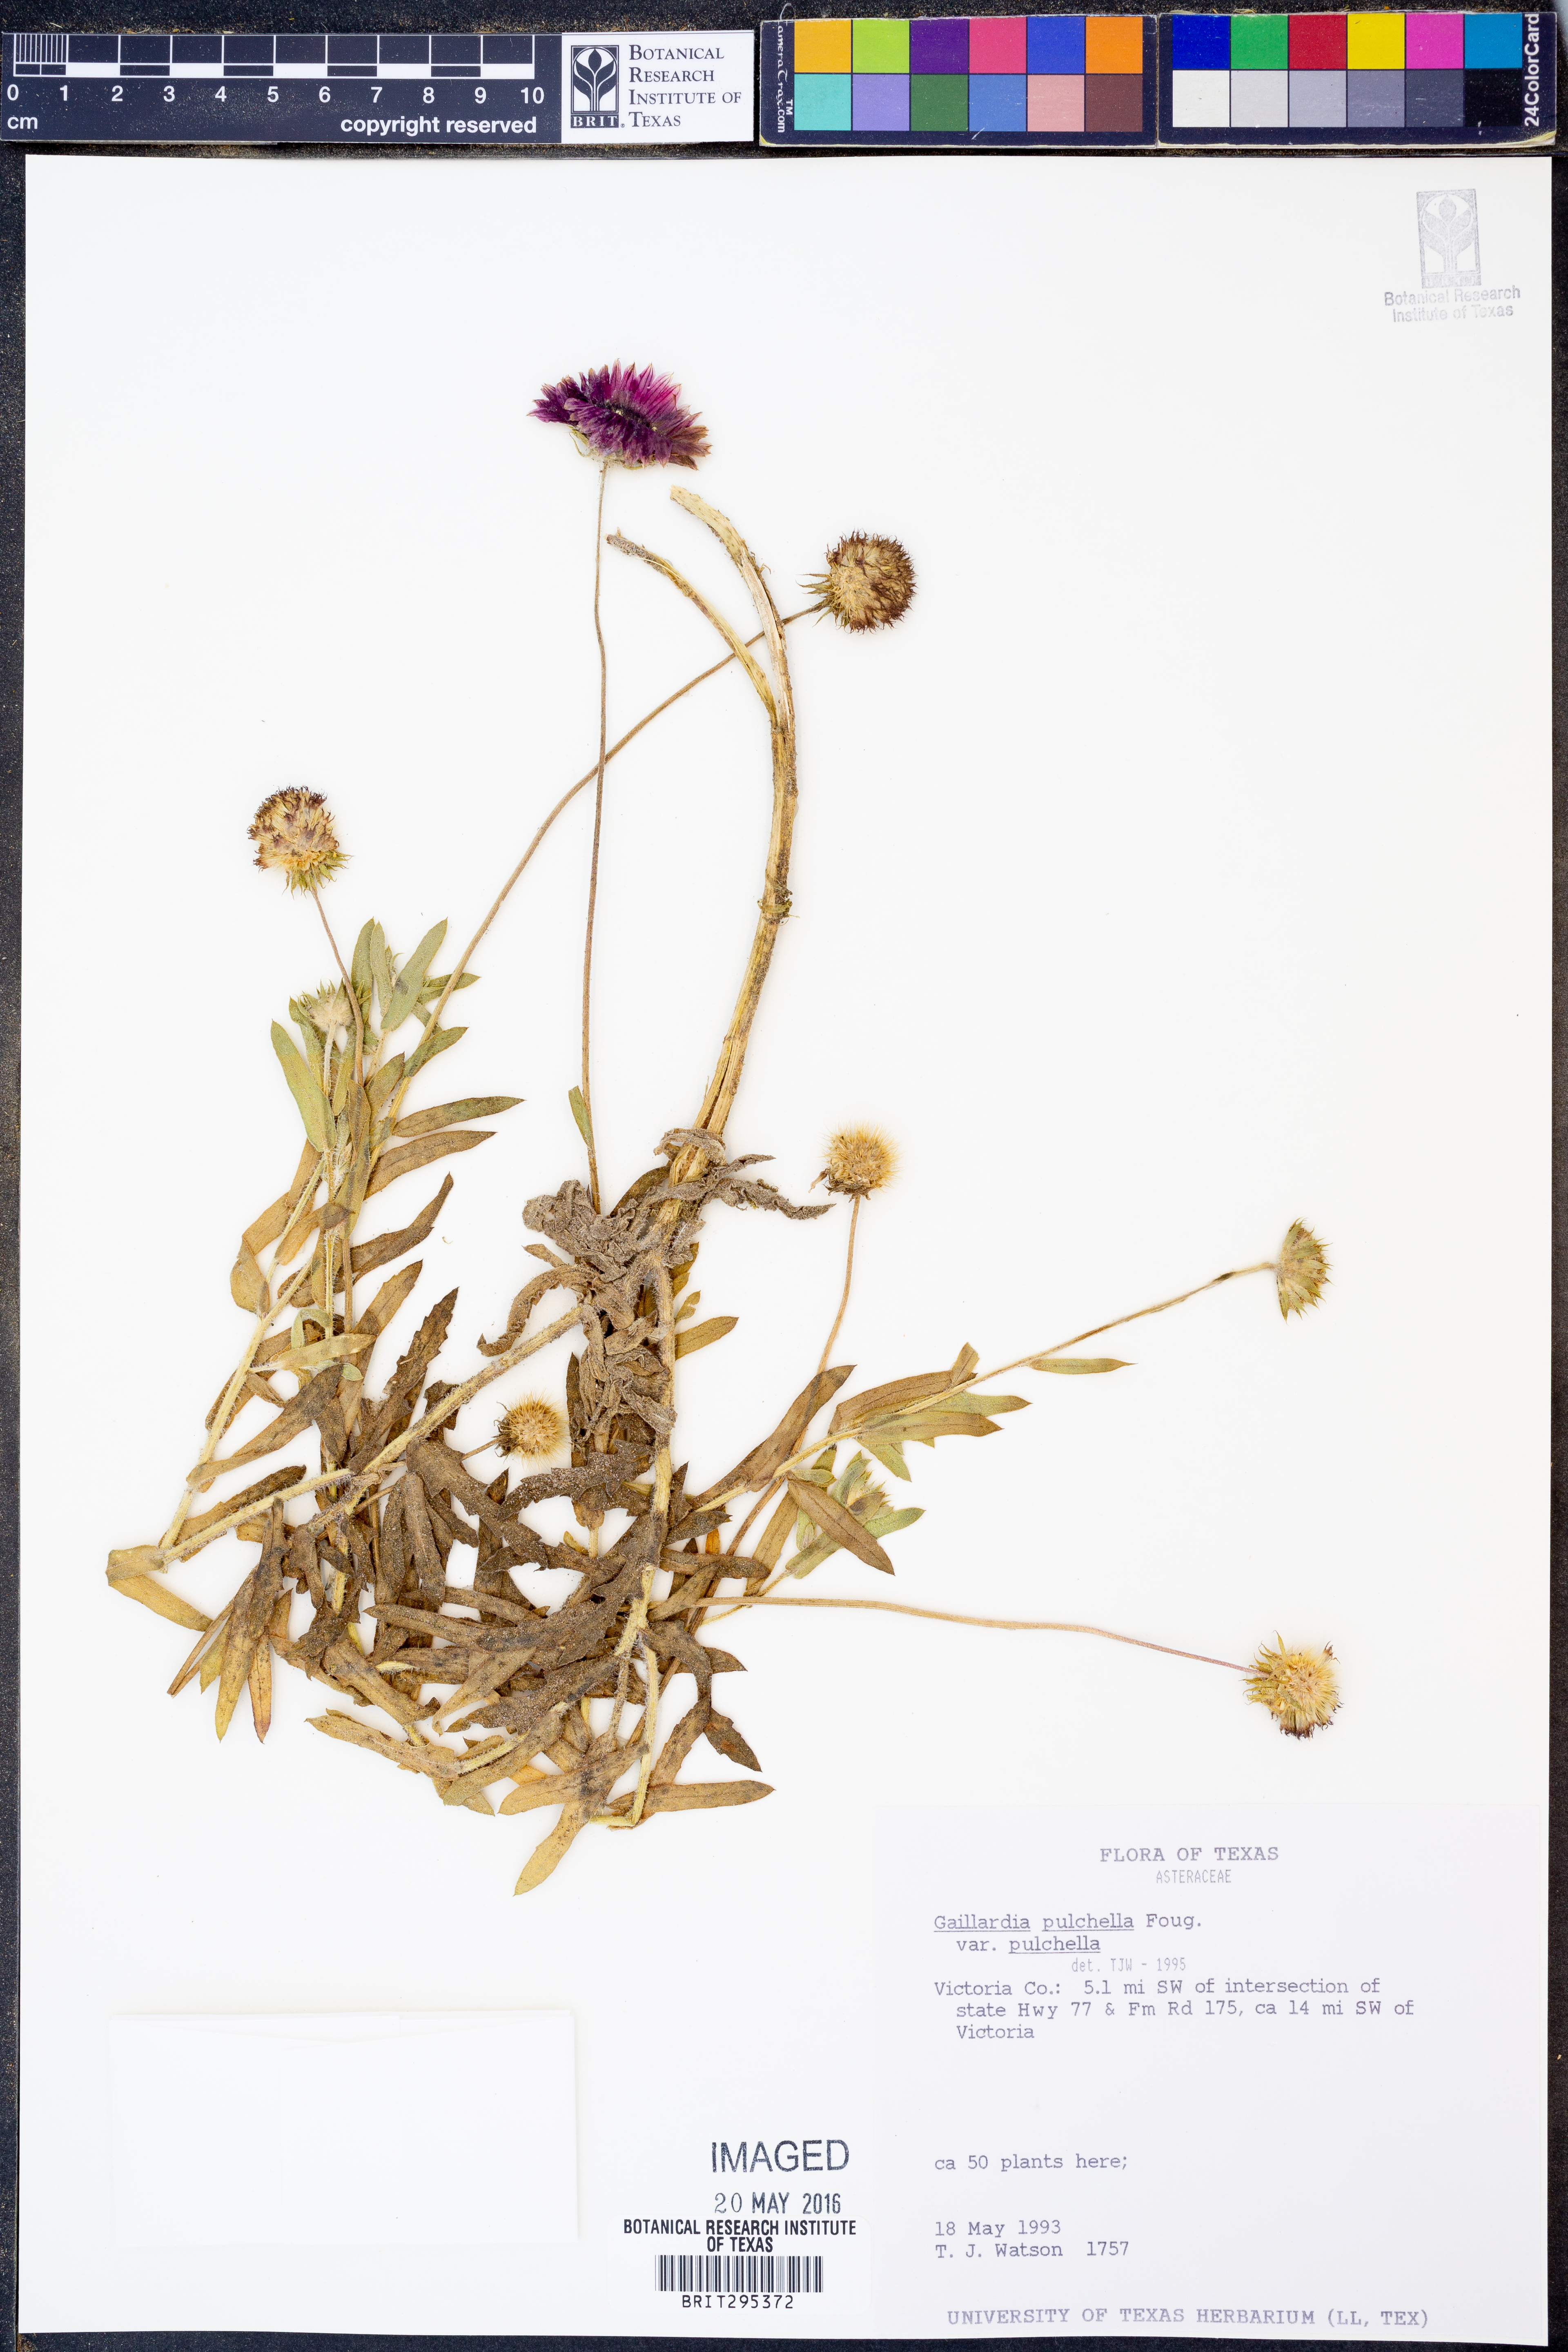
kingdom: Plantae
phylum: Tracheophyta
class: Magnoliopsida
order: Asterales
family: Asteraceae
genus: Gaillardia
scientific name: Gaillardia pulchella
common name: Firewheel
